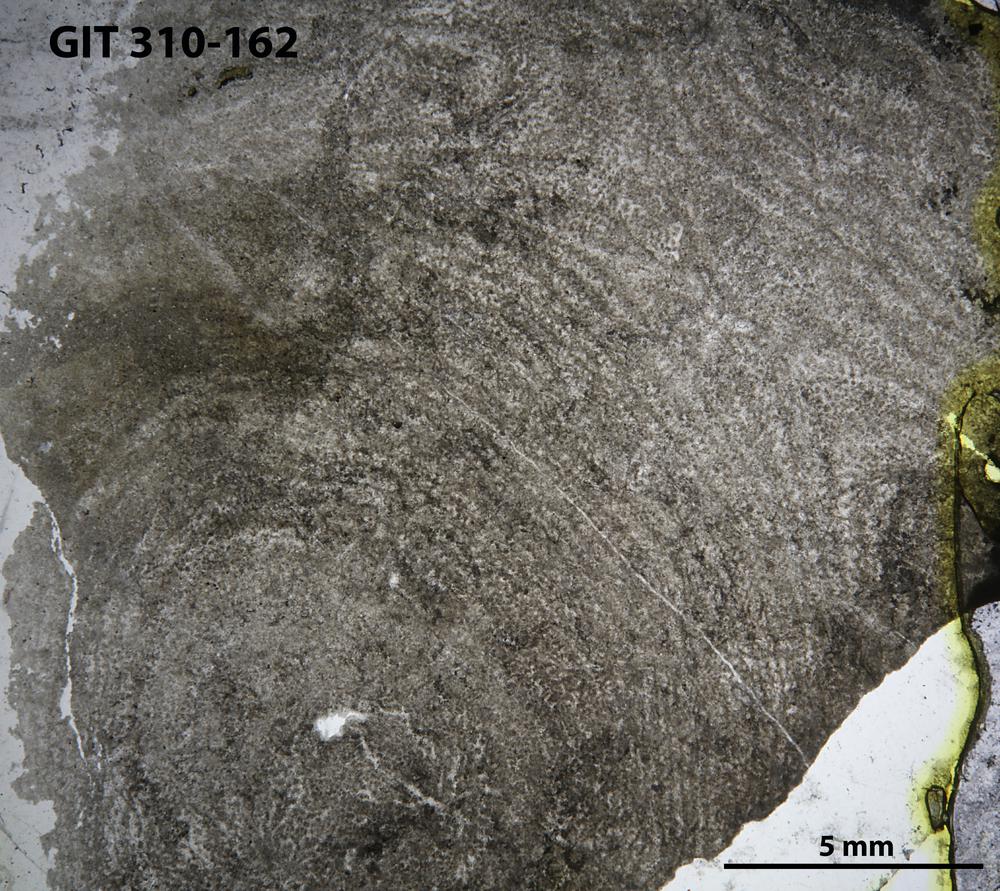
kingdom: Animalia
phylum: Porifera
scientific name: Porifera
